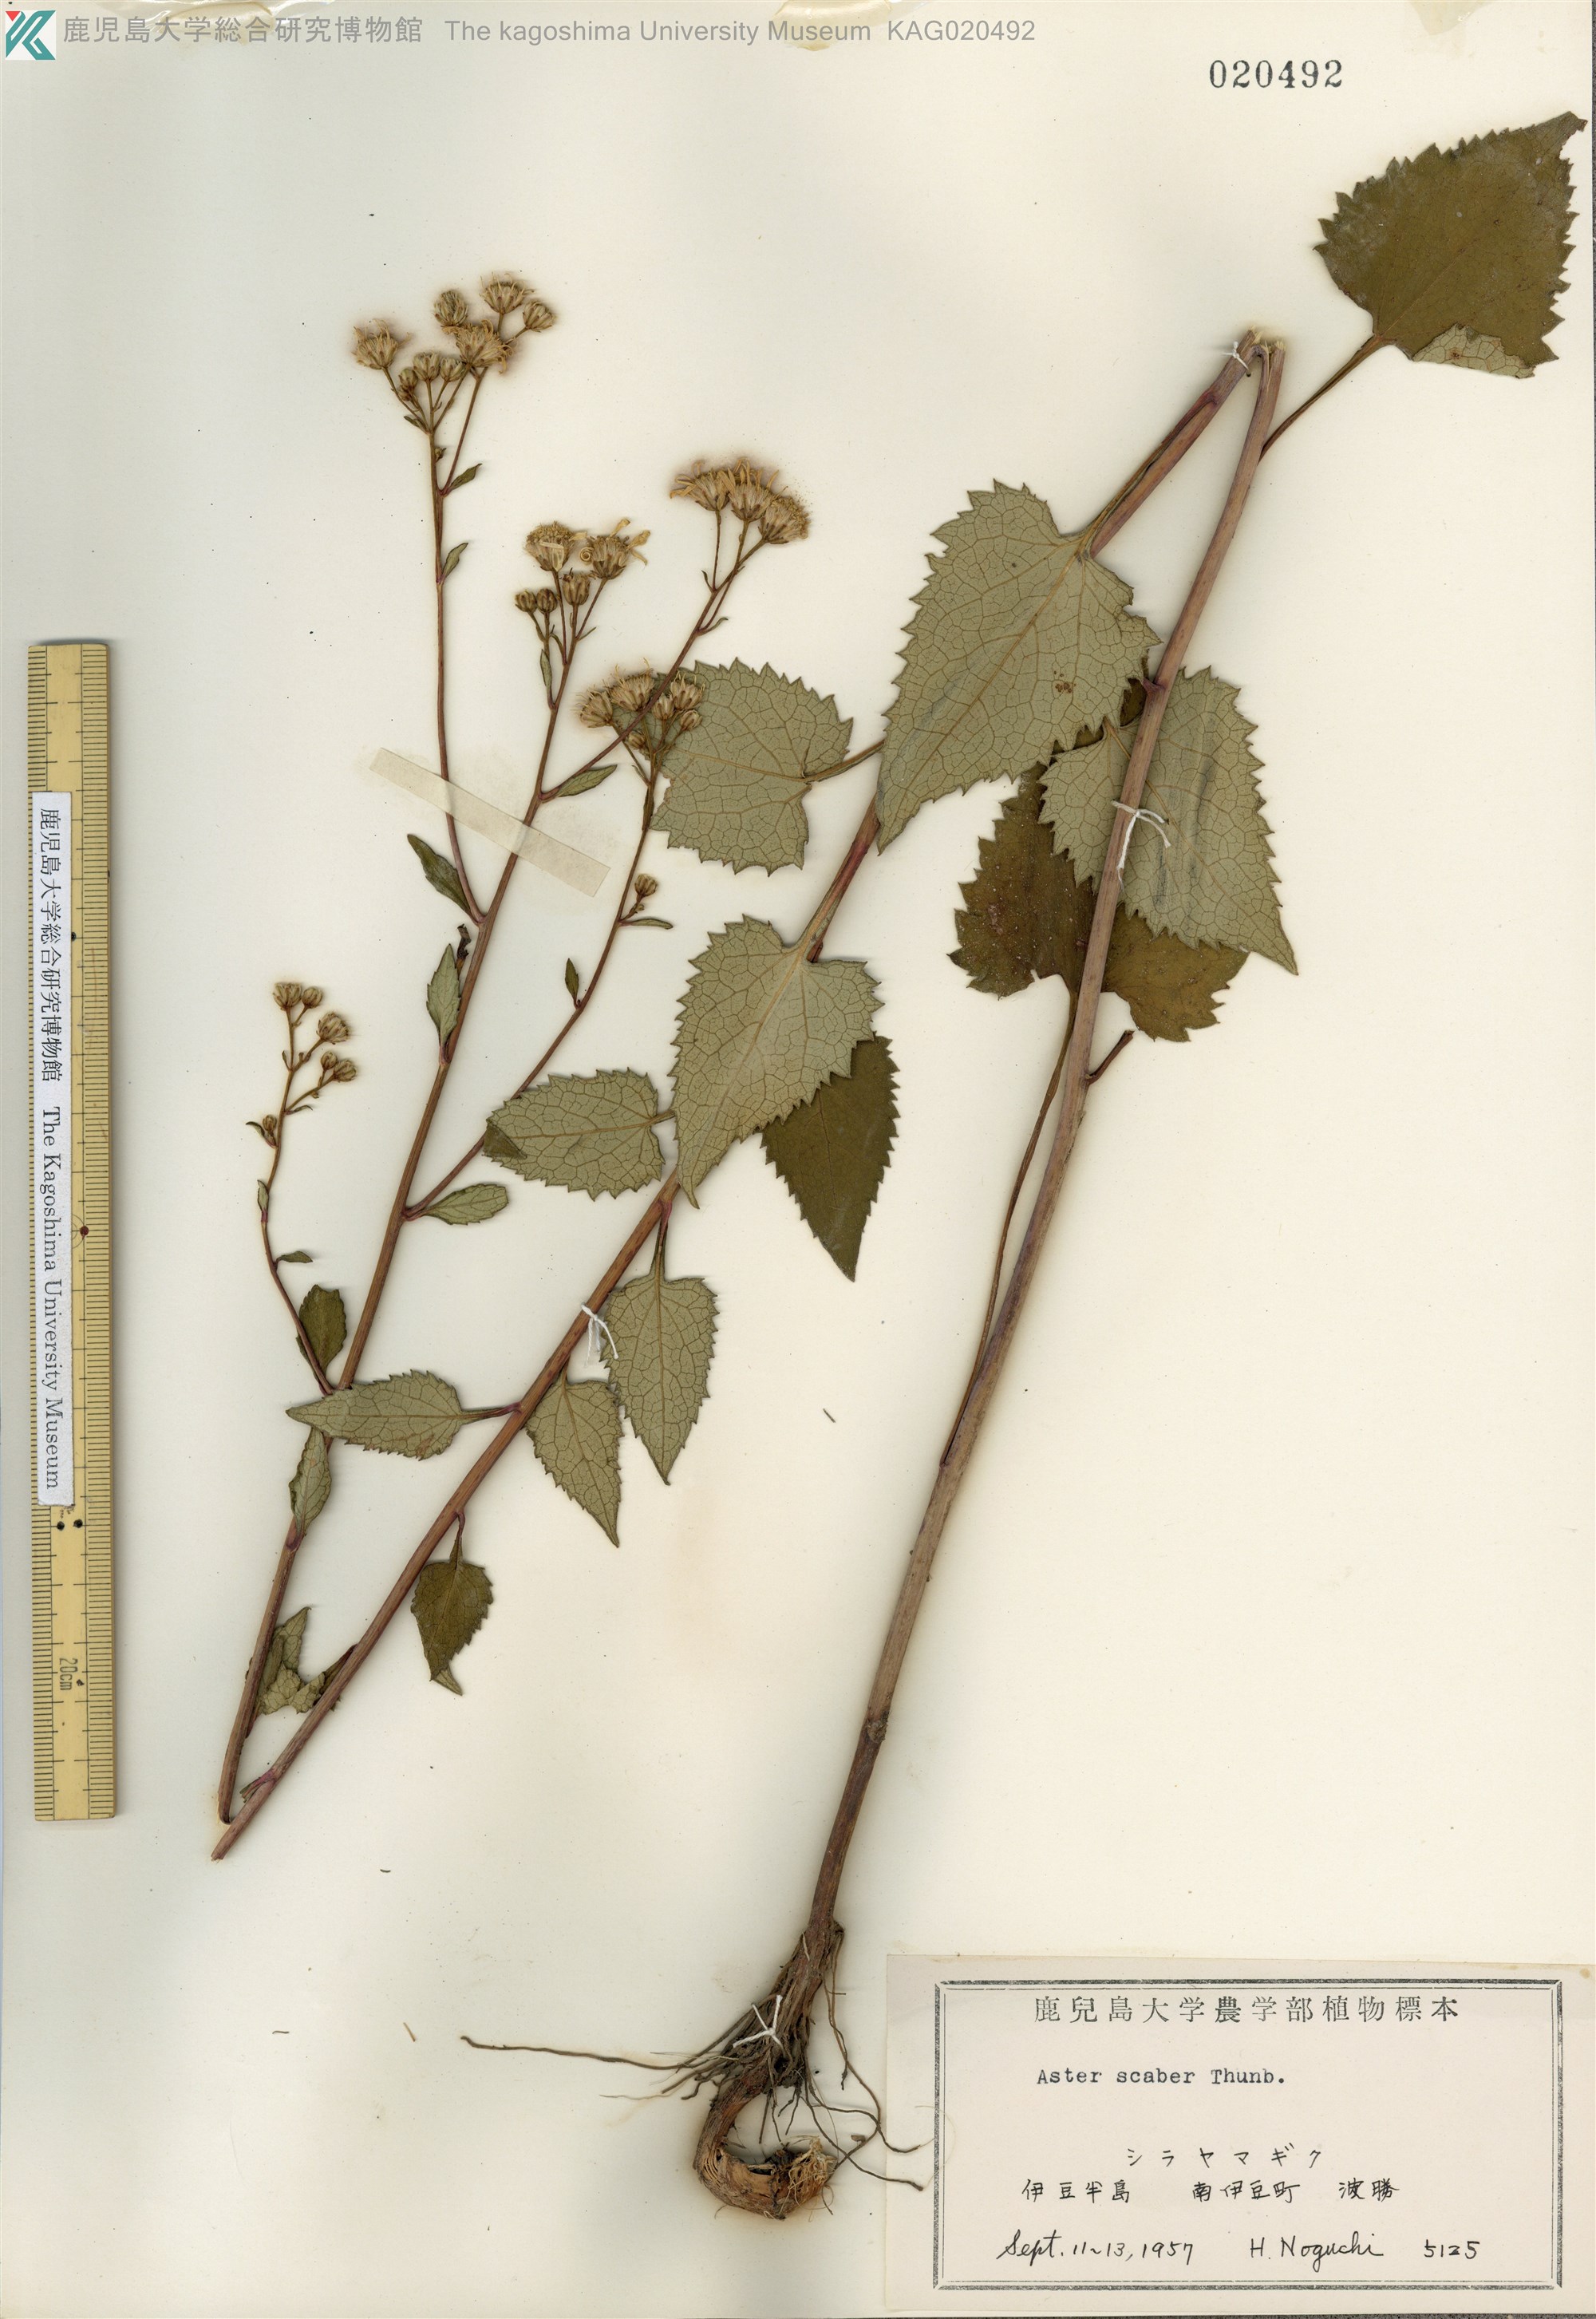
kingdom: Plantae
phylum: Tracheophyta
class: Magnoliopsida
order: Asterales
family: Asteraceae
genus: Cardiagyris
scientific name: Cardiagyris scabra
